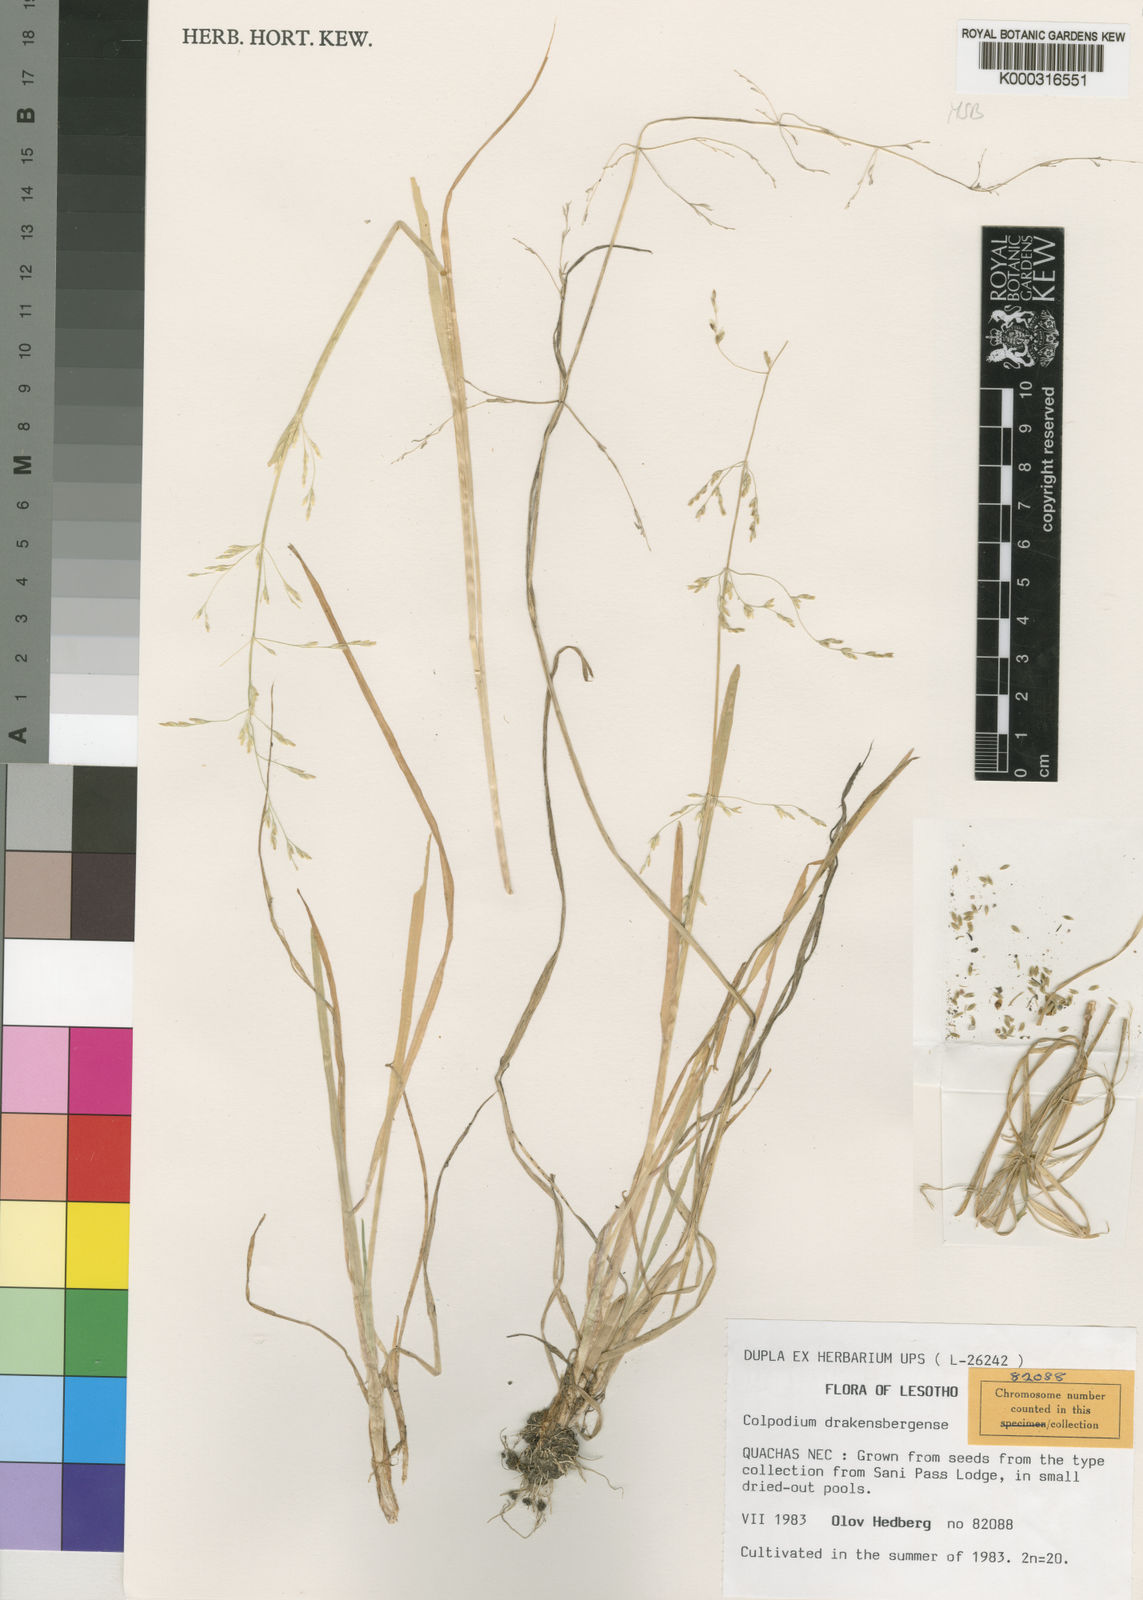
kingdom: Plantae
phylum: Tracheophyta
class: Liliopsida
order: Poales
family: Poaceae
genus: Catabrosa
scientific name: Catabrosa drakensbergensis
